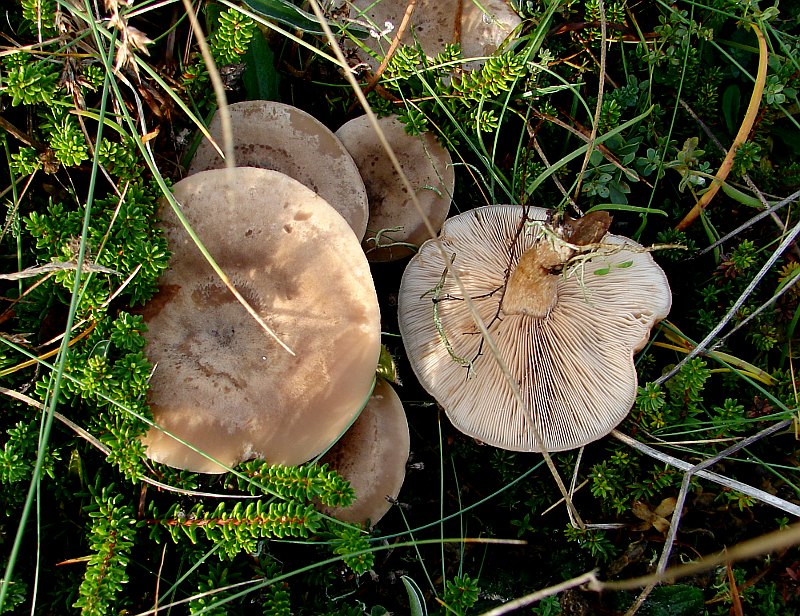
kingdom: Fungi
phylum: Basidiomycota
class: Agaricomycetes
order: Agaricales
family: Tricholomataceae
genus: Lepista
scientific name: Lepista panaeolus
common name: marmoreret hekseringshat
